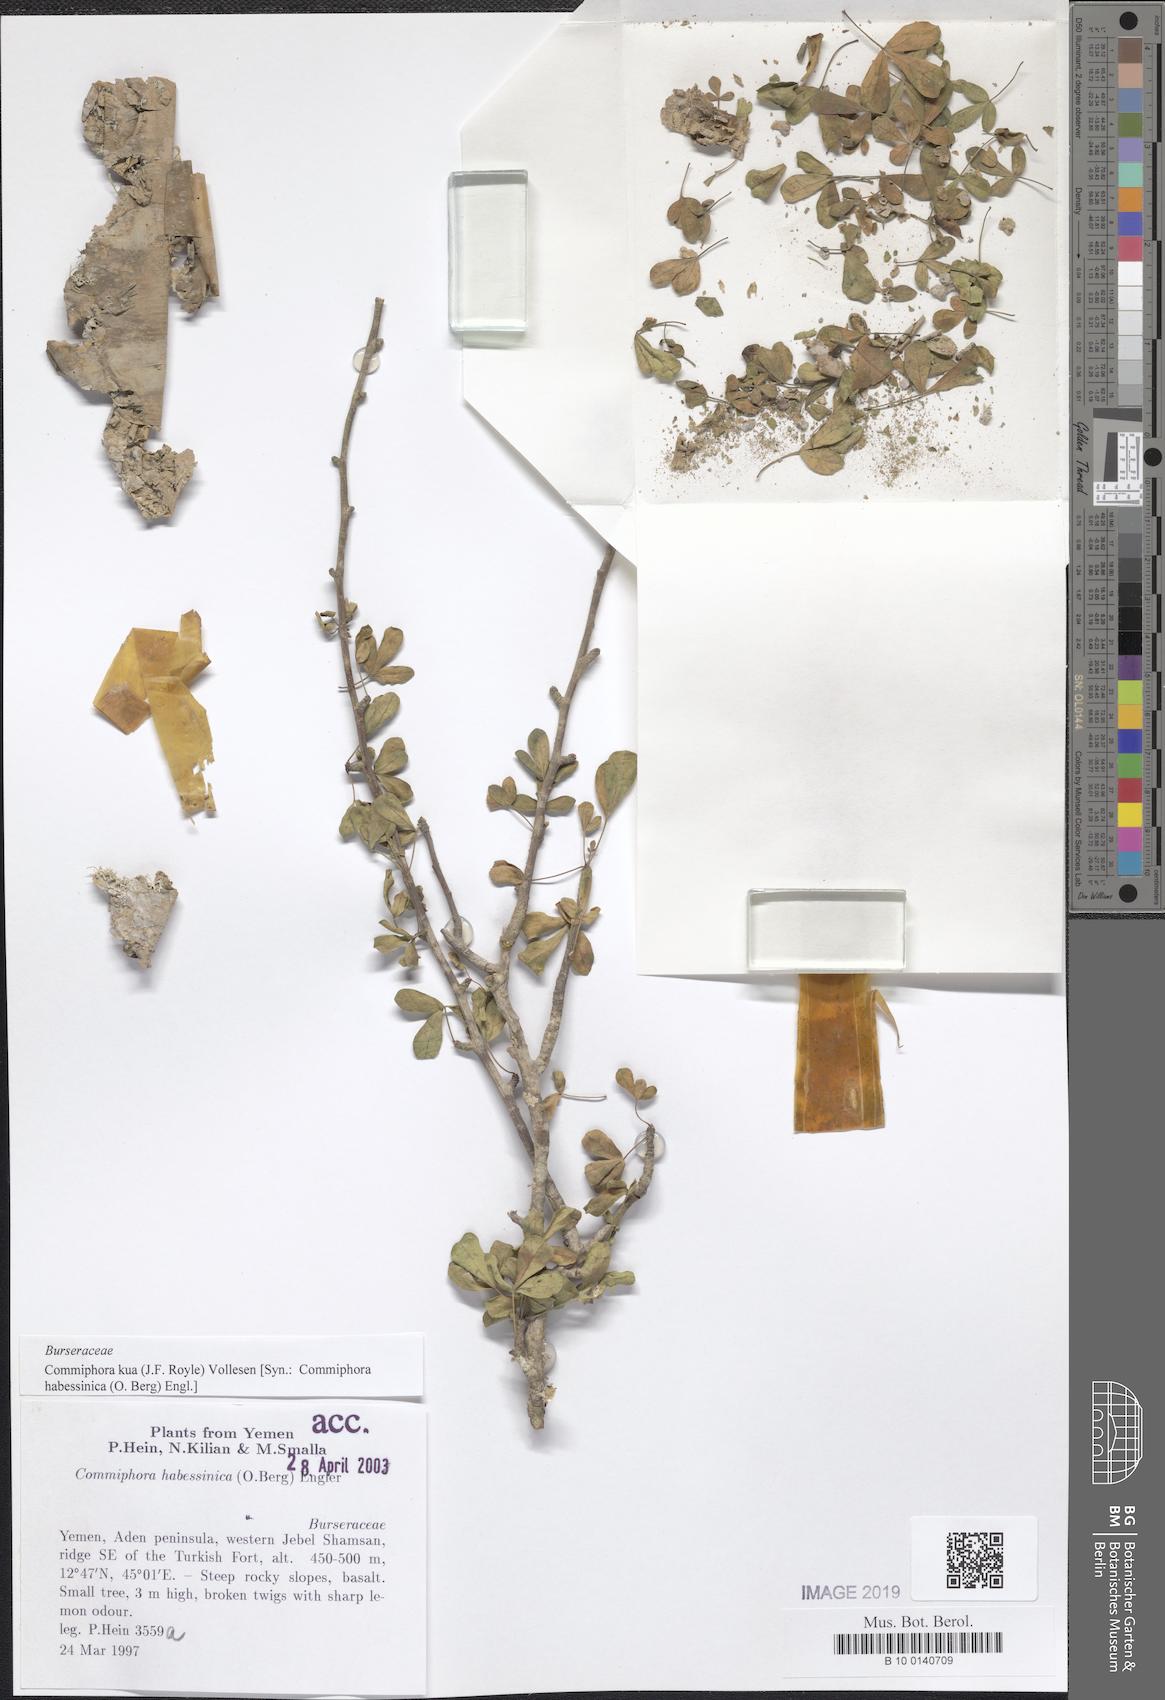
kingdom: Plantae
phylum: Tracheophyta
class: Magnoliopsida
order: Sapindales
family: Burseraceae
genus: Commiphora
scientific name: Commiphora kua
